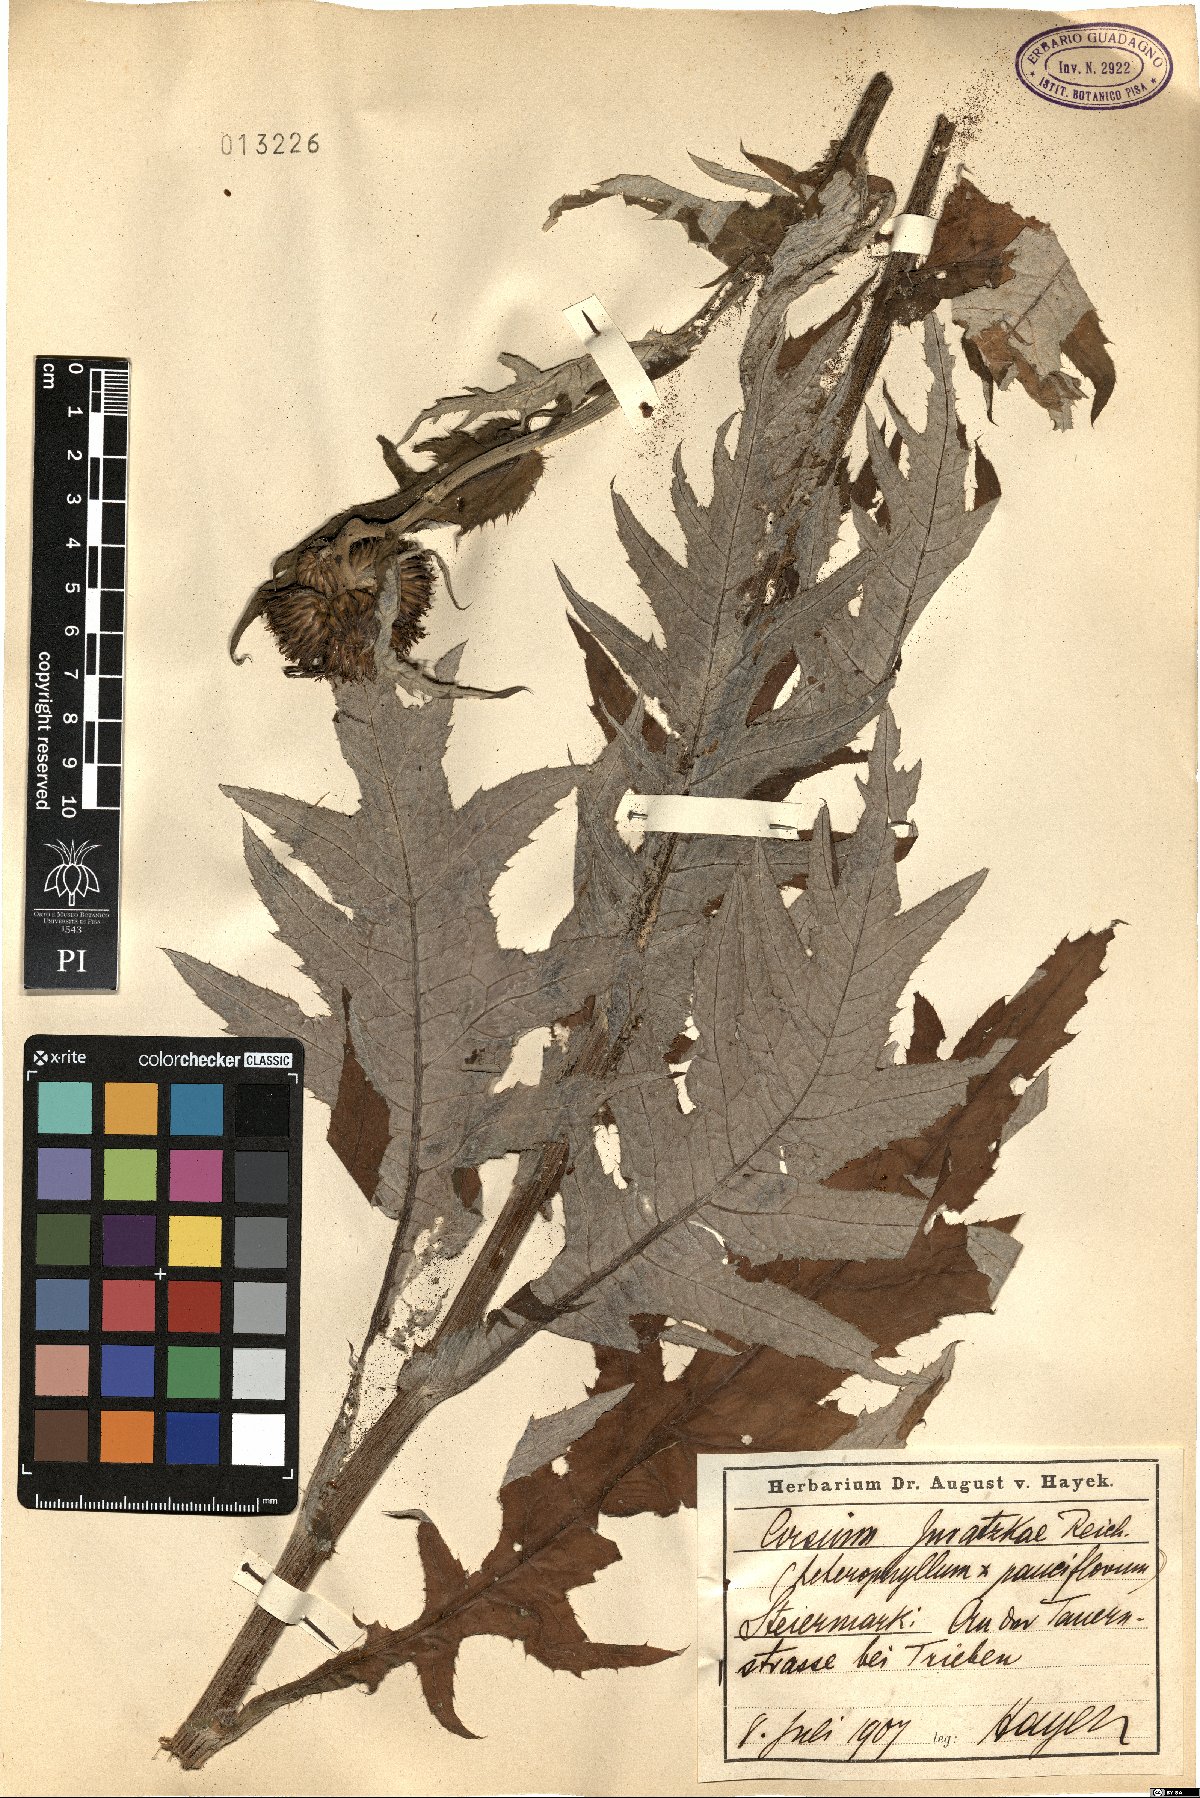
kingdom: Plantae
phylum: Tracheophyta
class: Magnoliopsida
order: Asterales
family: Asteraceae
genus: Cirsium
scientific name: Cirsium juratzkae
